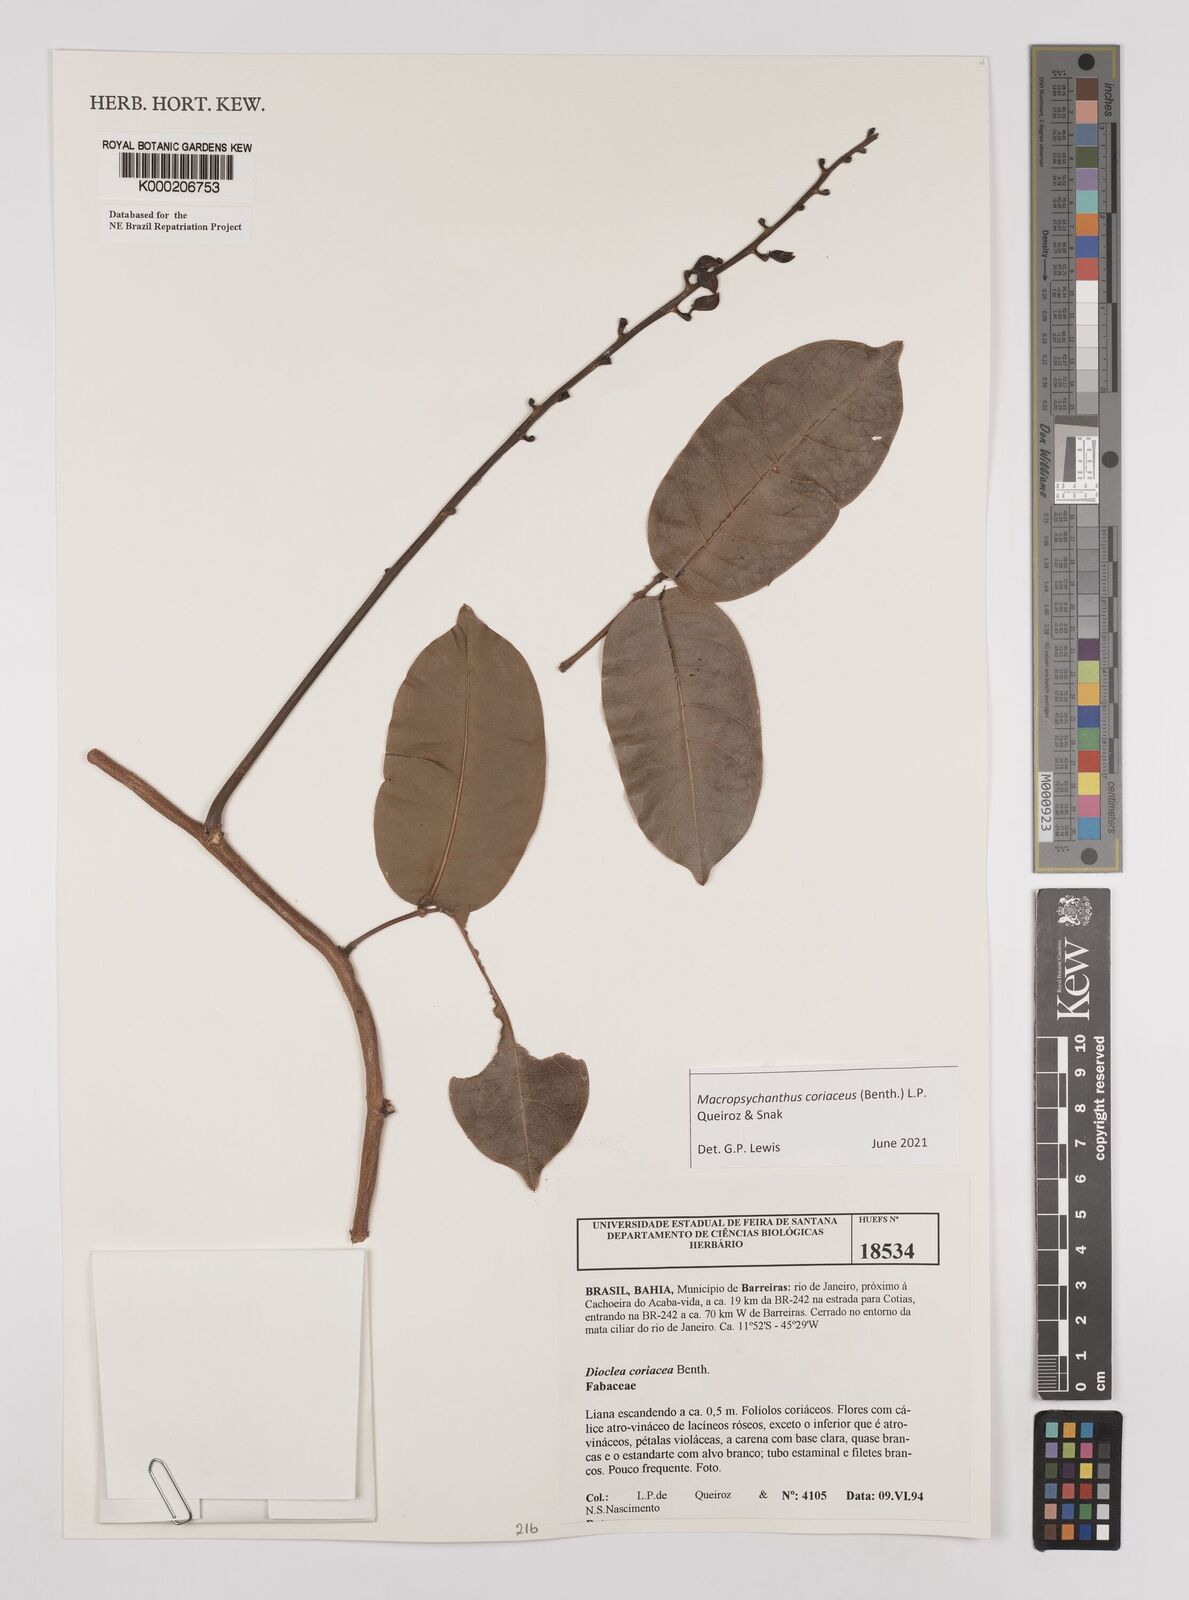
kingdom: Plantae
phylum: Tracheophyta
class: Magnoliopsida
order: Fabales
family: Fabaceae
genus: Macropsychanthus
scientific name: Macropsychanthus coriaceus
